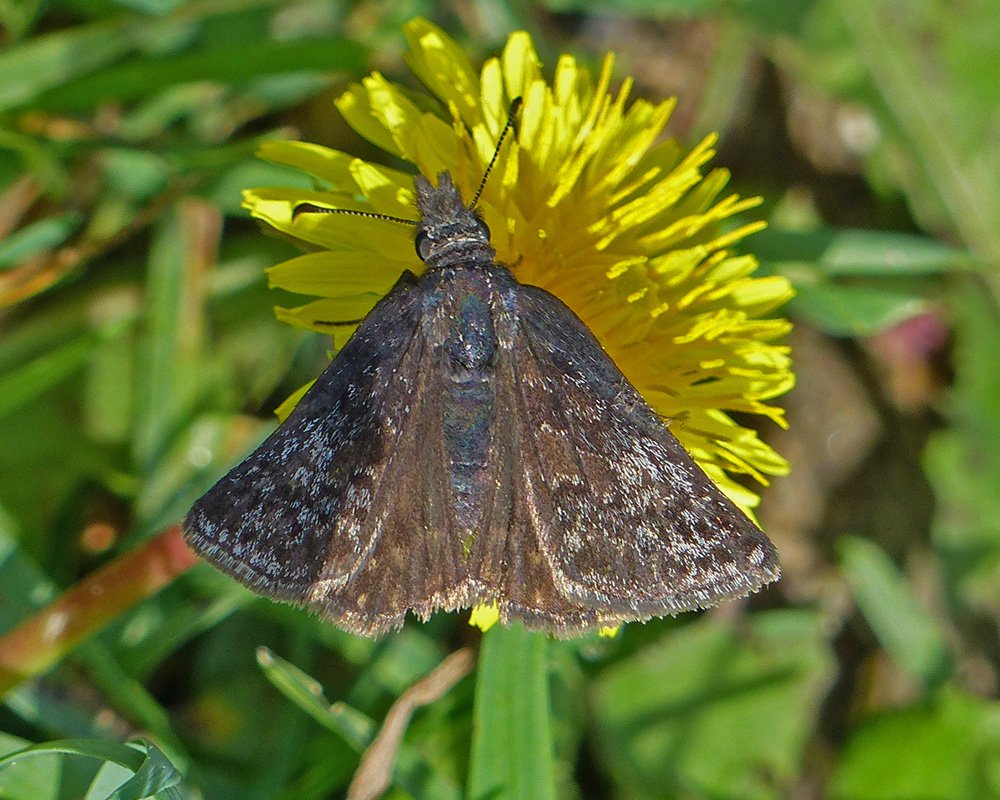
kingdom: Animalia
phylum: Arthropoda
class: Insecta
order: Lepidoptera
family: Hesperiidae
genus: Erynnis
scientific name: Erynnis icelus
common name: Dreamy Duskywing
